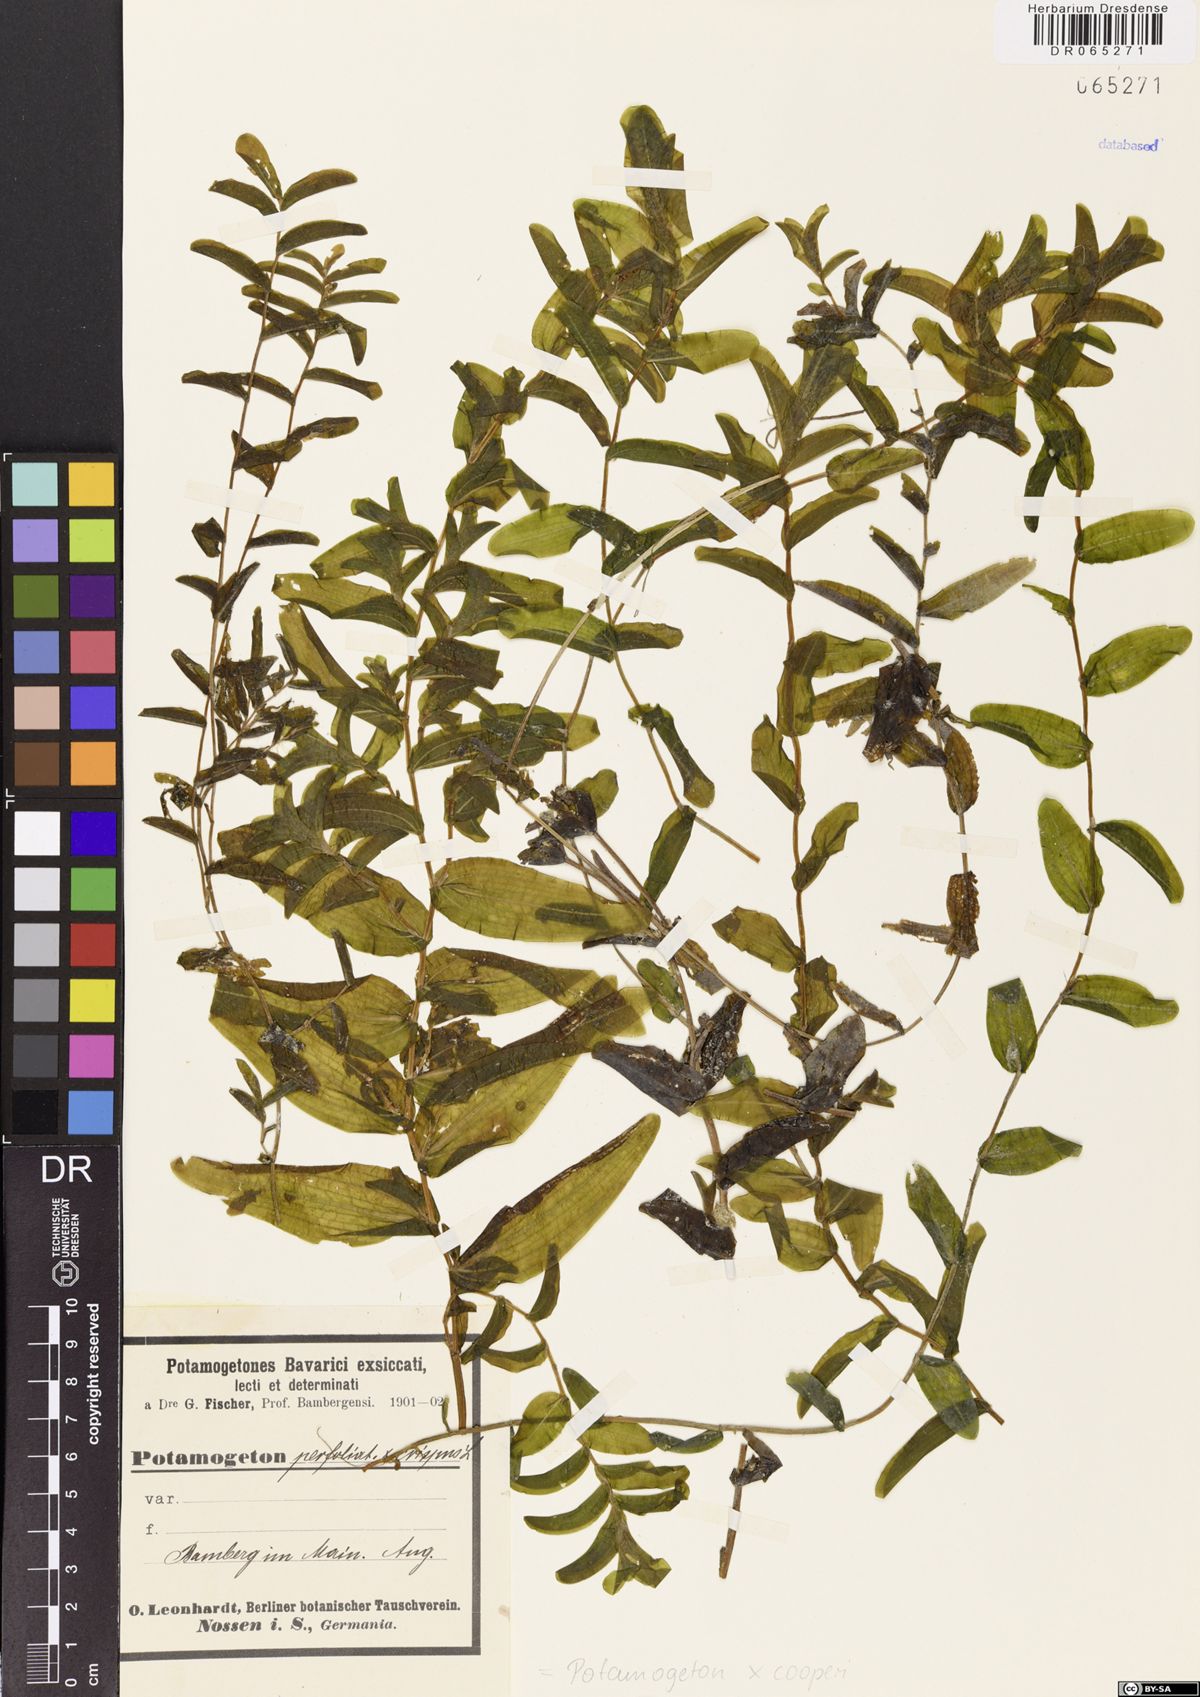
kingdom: Plantae
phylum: Tracheophyta
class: Liliopsida
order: Alismatales
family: Potamogetonaceae
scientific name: Potamogetonaceae
